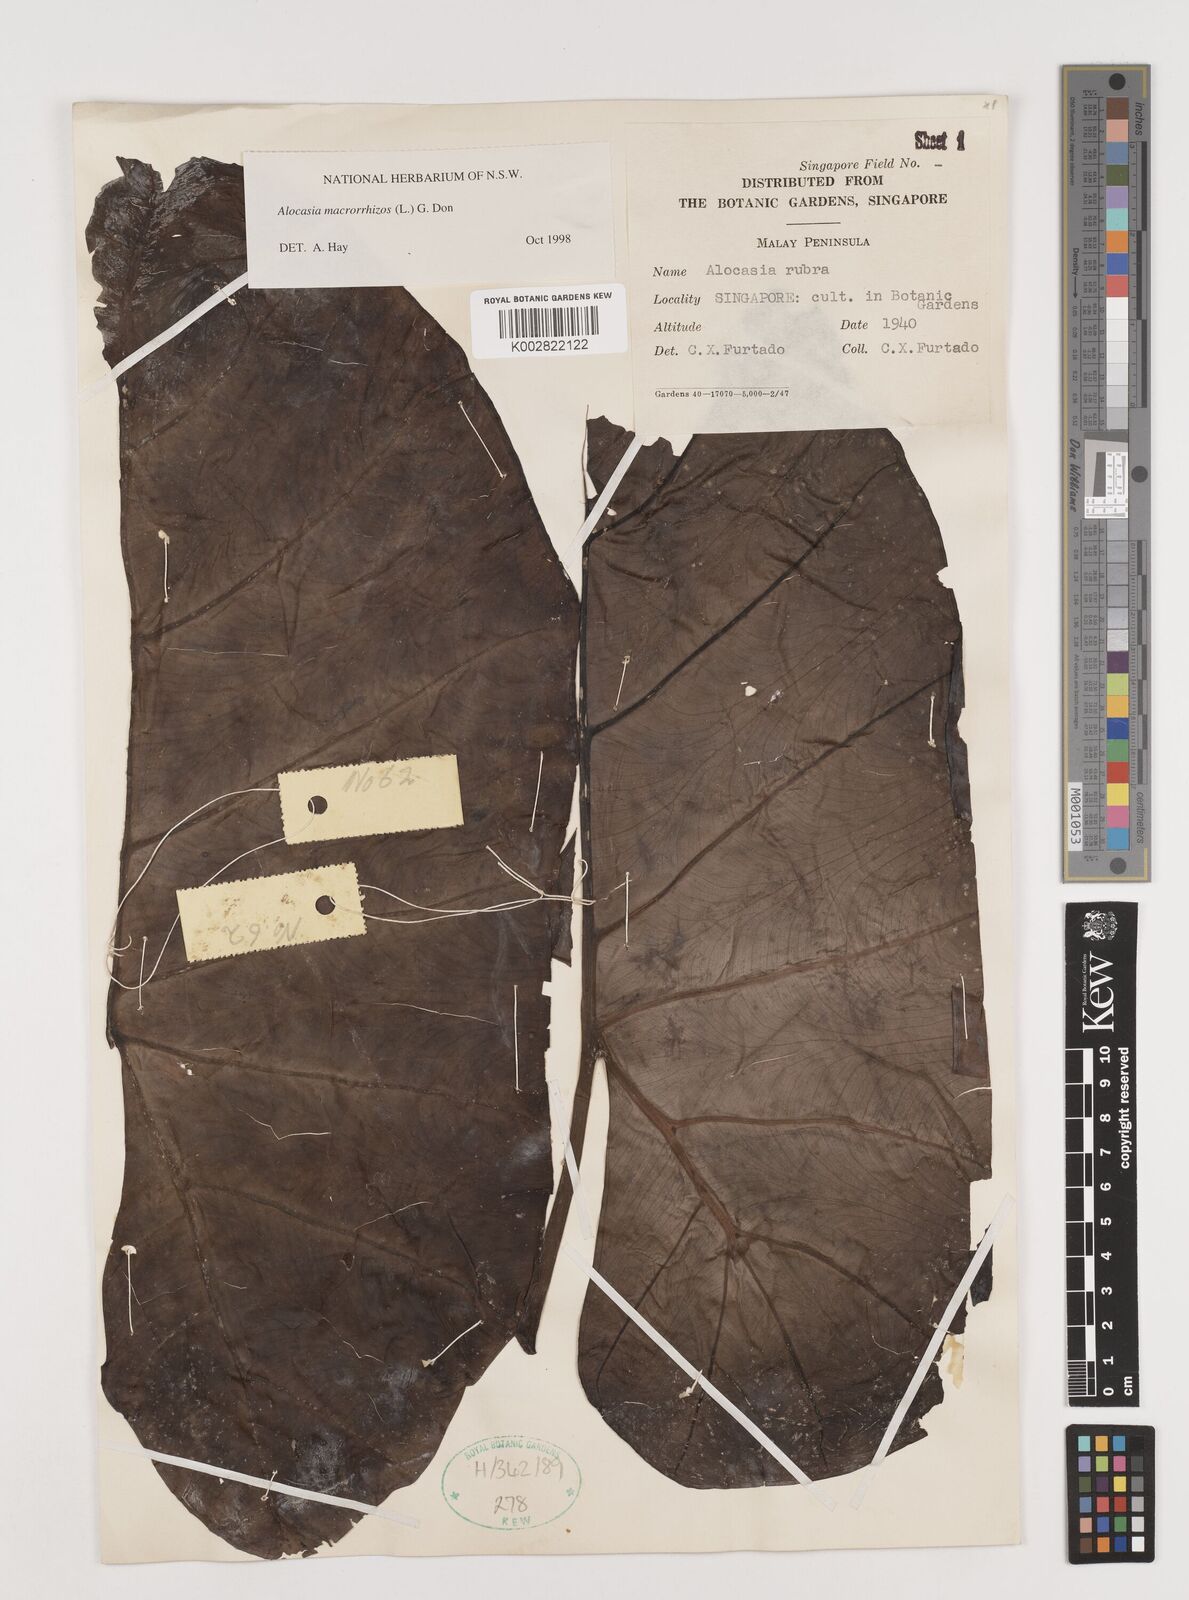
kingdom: Plantae
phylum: Tracheophyta
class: Liliopsida
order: Alismatales
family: Araceae
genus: Alocasia
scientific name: Alocasia macrorrhizos
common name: Giant taro
